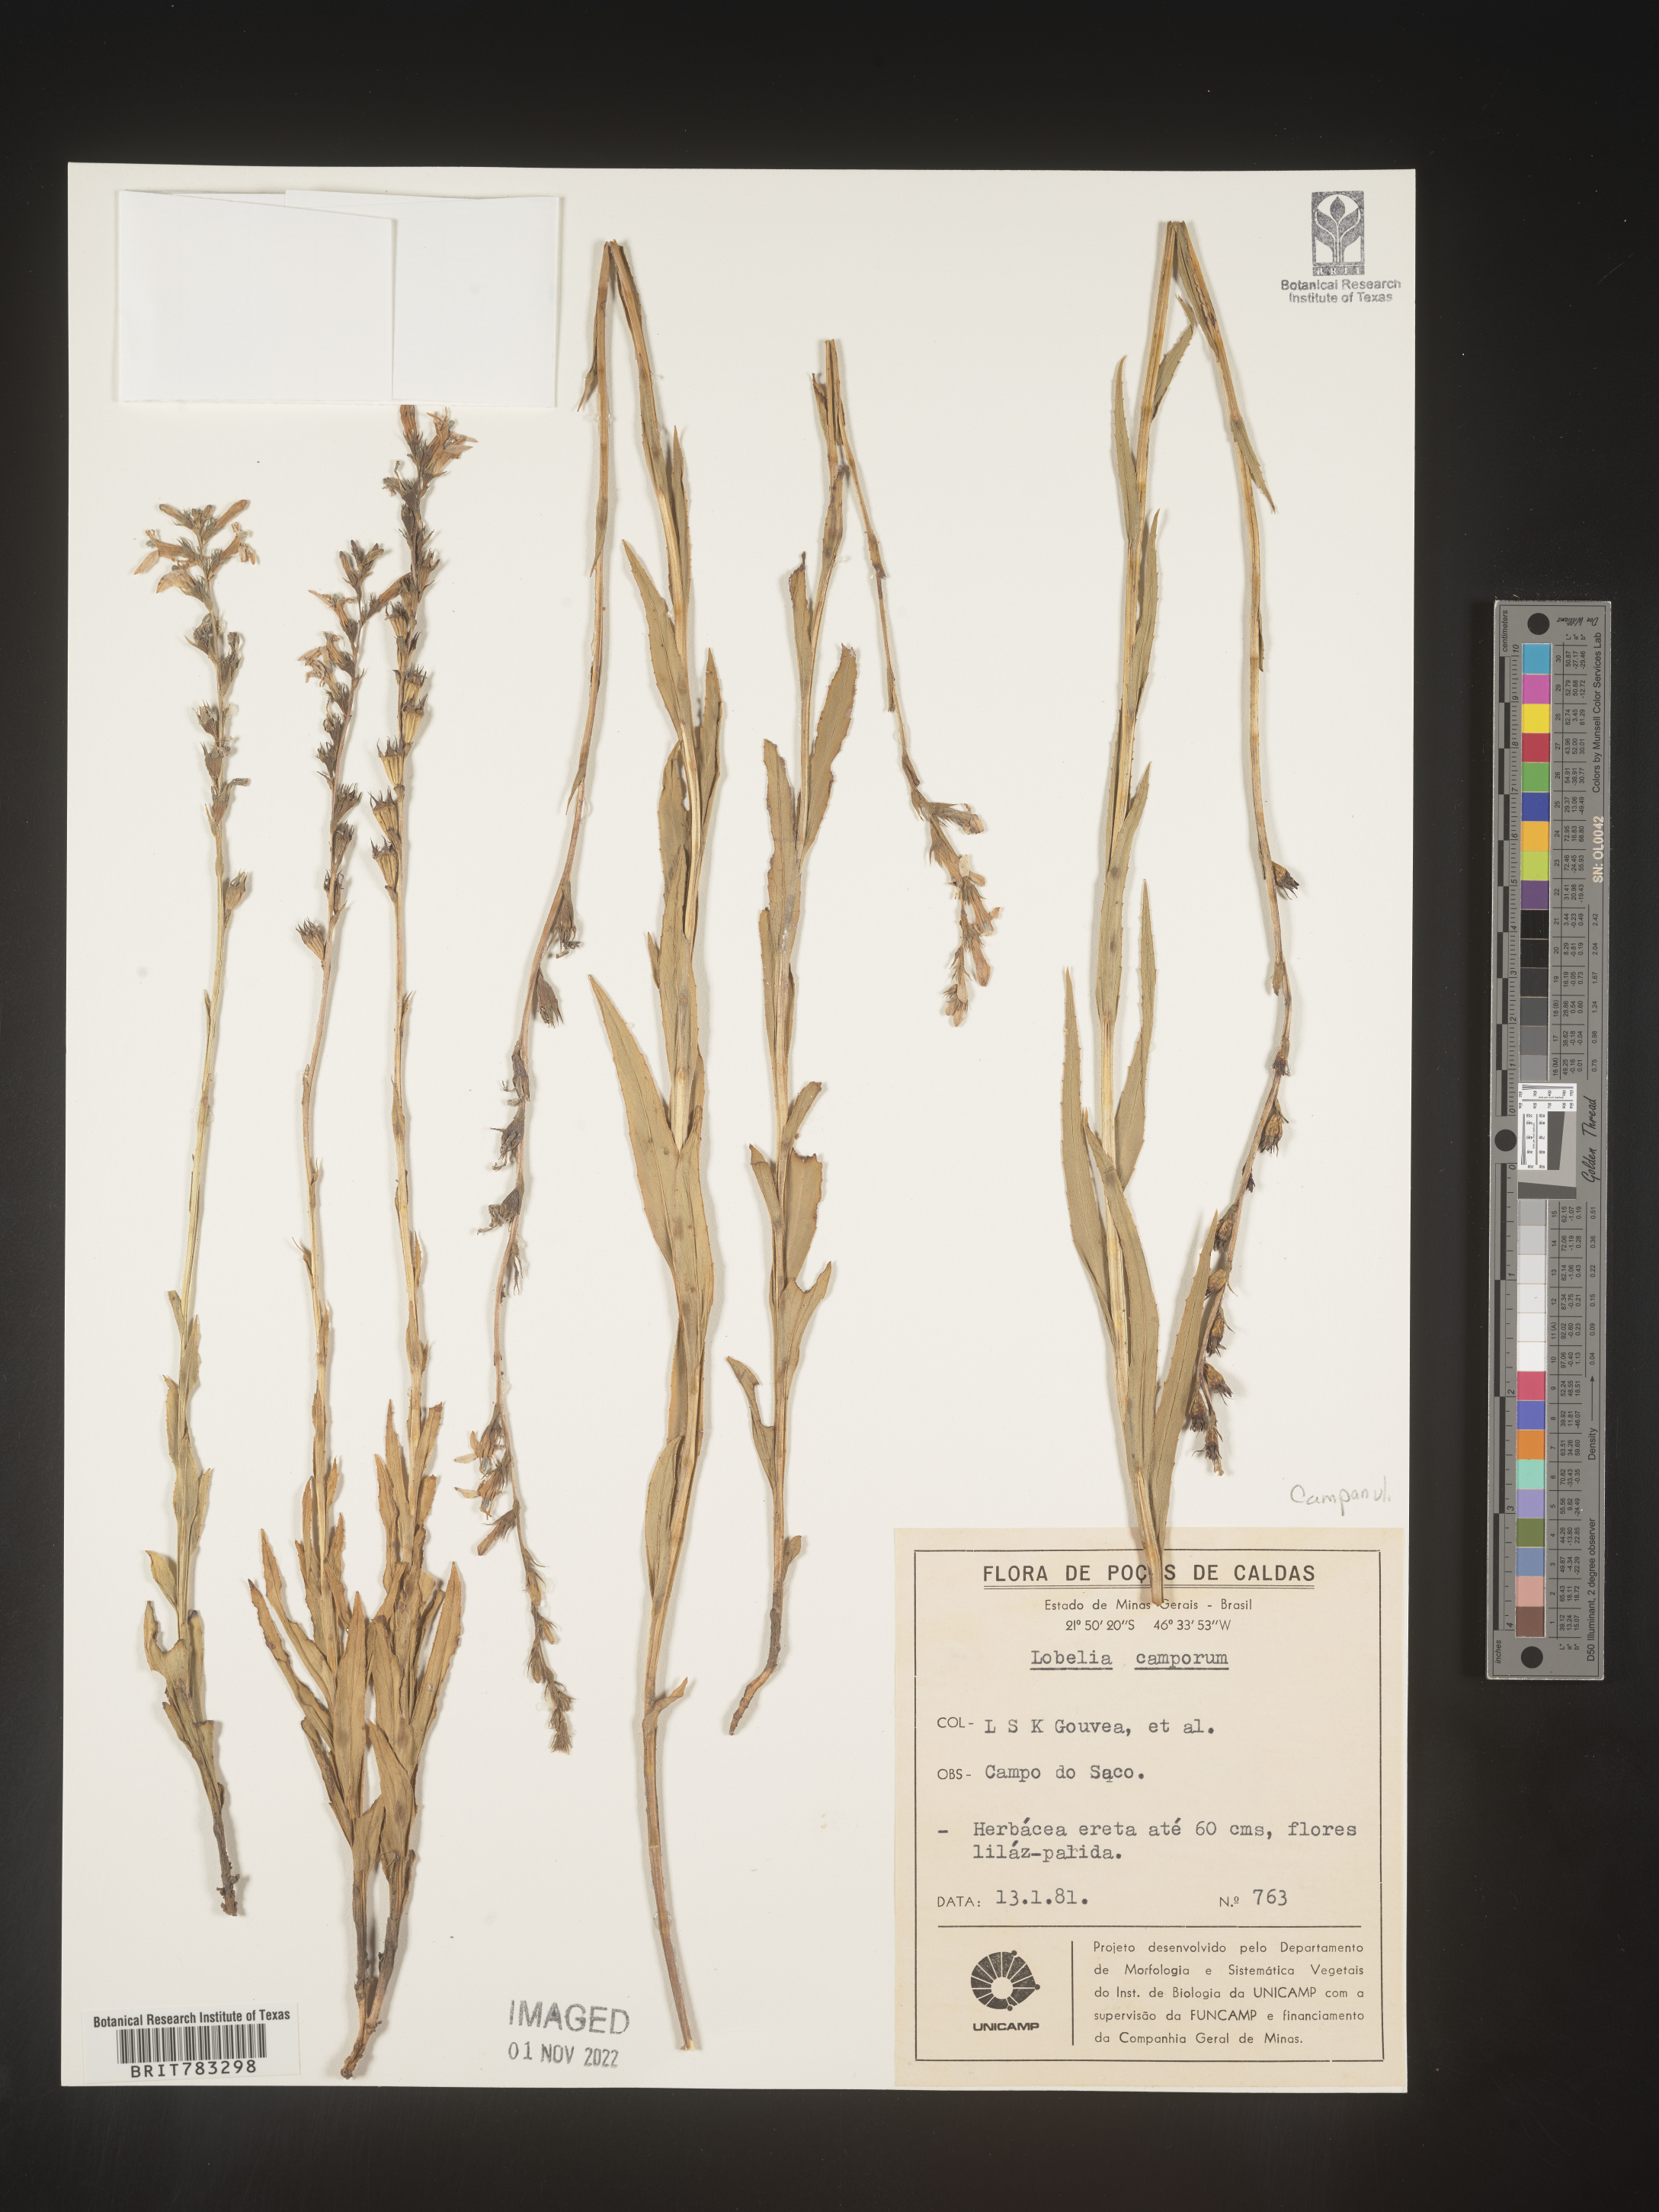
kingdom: Plantae
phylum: Tracheophyta
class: Magnoliopsida
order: Asterales
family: Campanulaceae
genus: Lobelia
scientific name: Lobelia
